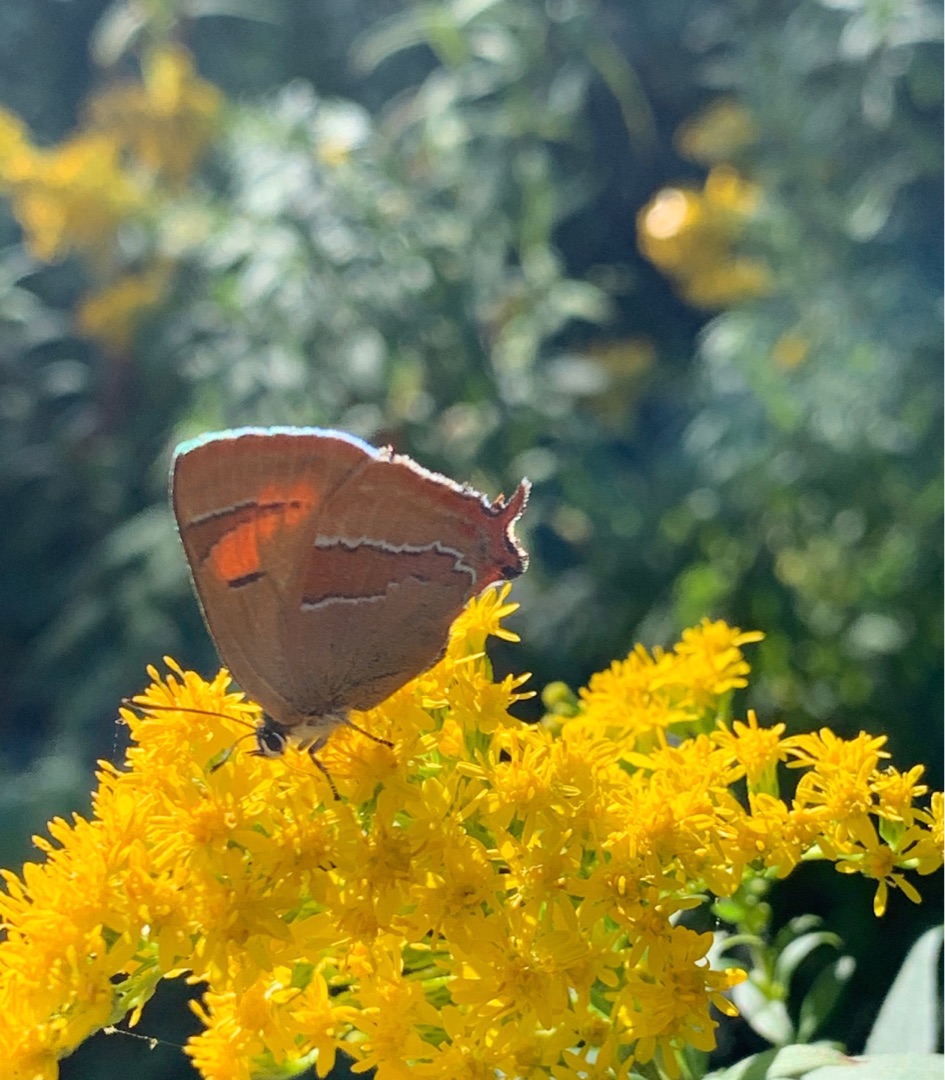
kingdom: Animalia
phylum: Arthropoda
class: Insecta
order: Lepidoptera
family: Lycaenidae
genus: Thecla
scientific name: Thecla betulae
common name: Guldhale
